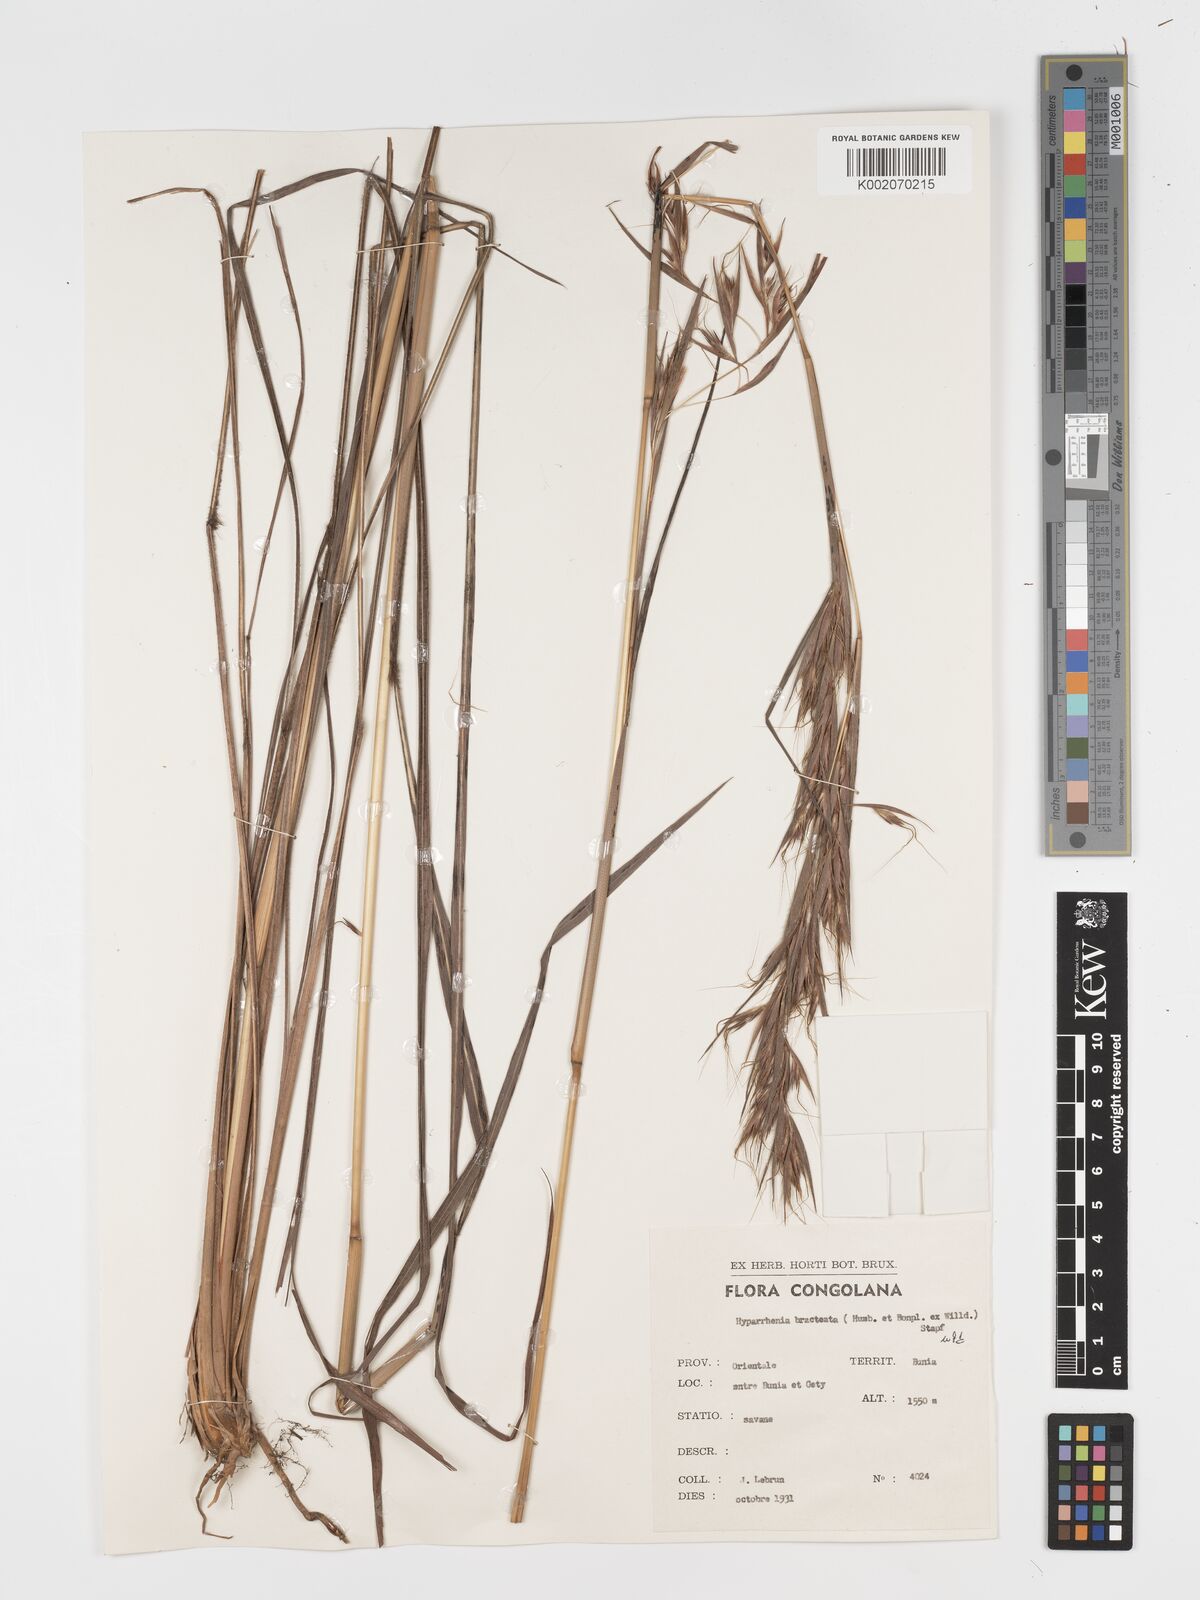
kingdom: Plantae
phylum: Tracheophyta
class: Liliopsida
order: Poales
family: Poaceae
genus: Hyparrhenia
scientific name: Hyparrhenia bracteata
